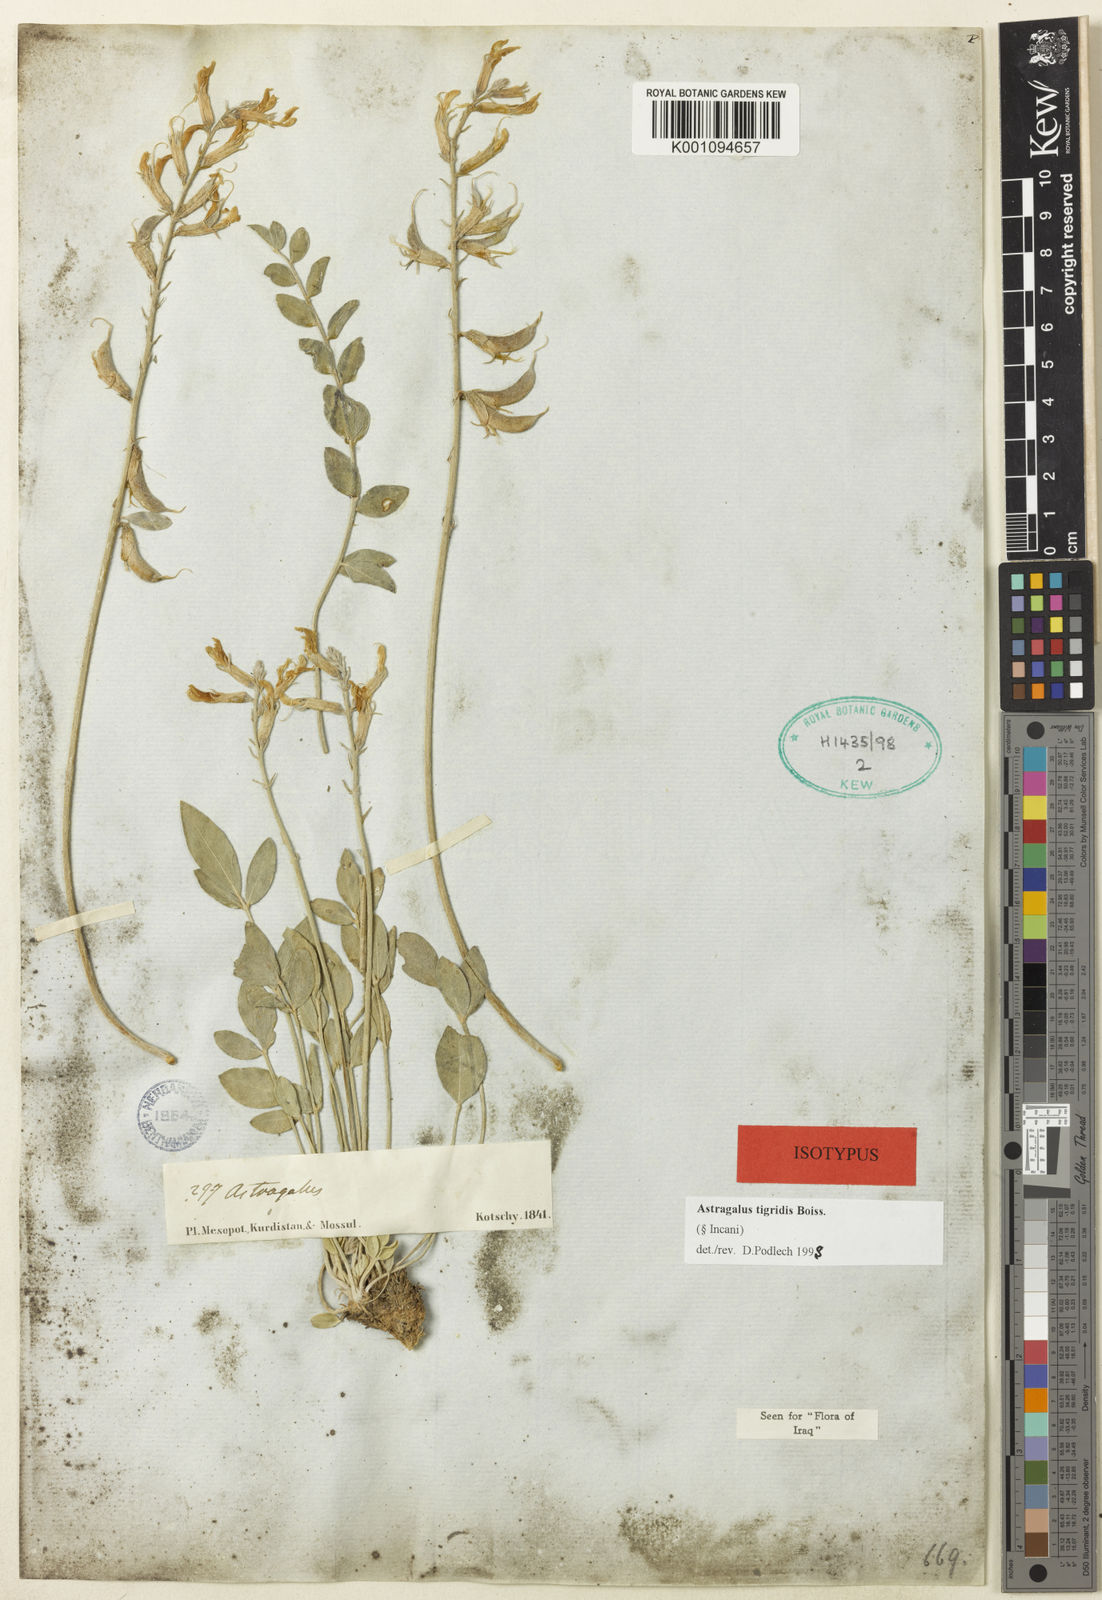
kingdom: Plantae
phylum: Tracheophyta
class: Magnoliopsida
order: Fabales
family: Fabaceae
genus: Astragalus
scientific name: Astragalus
